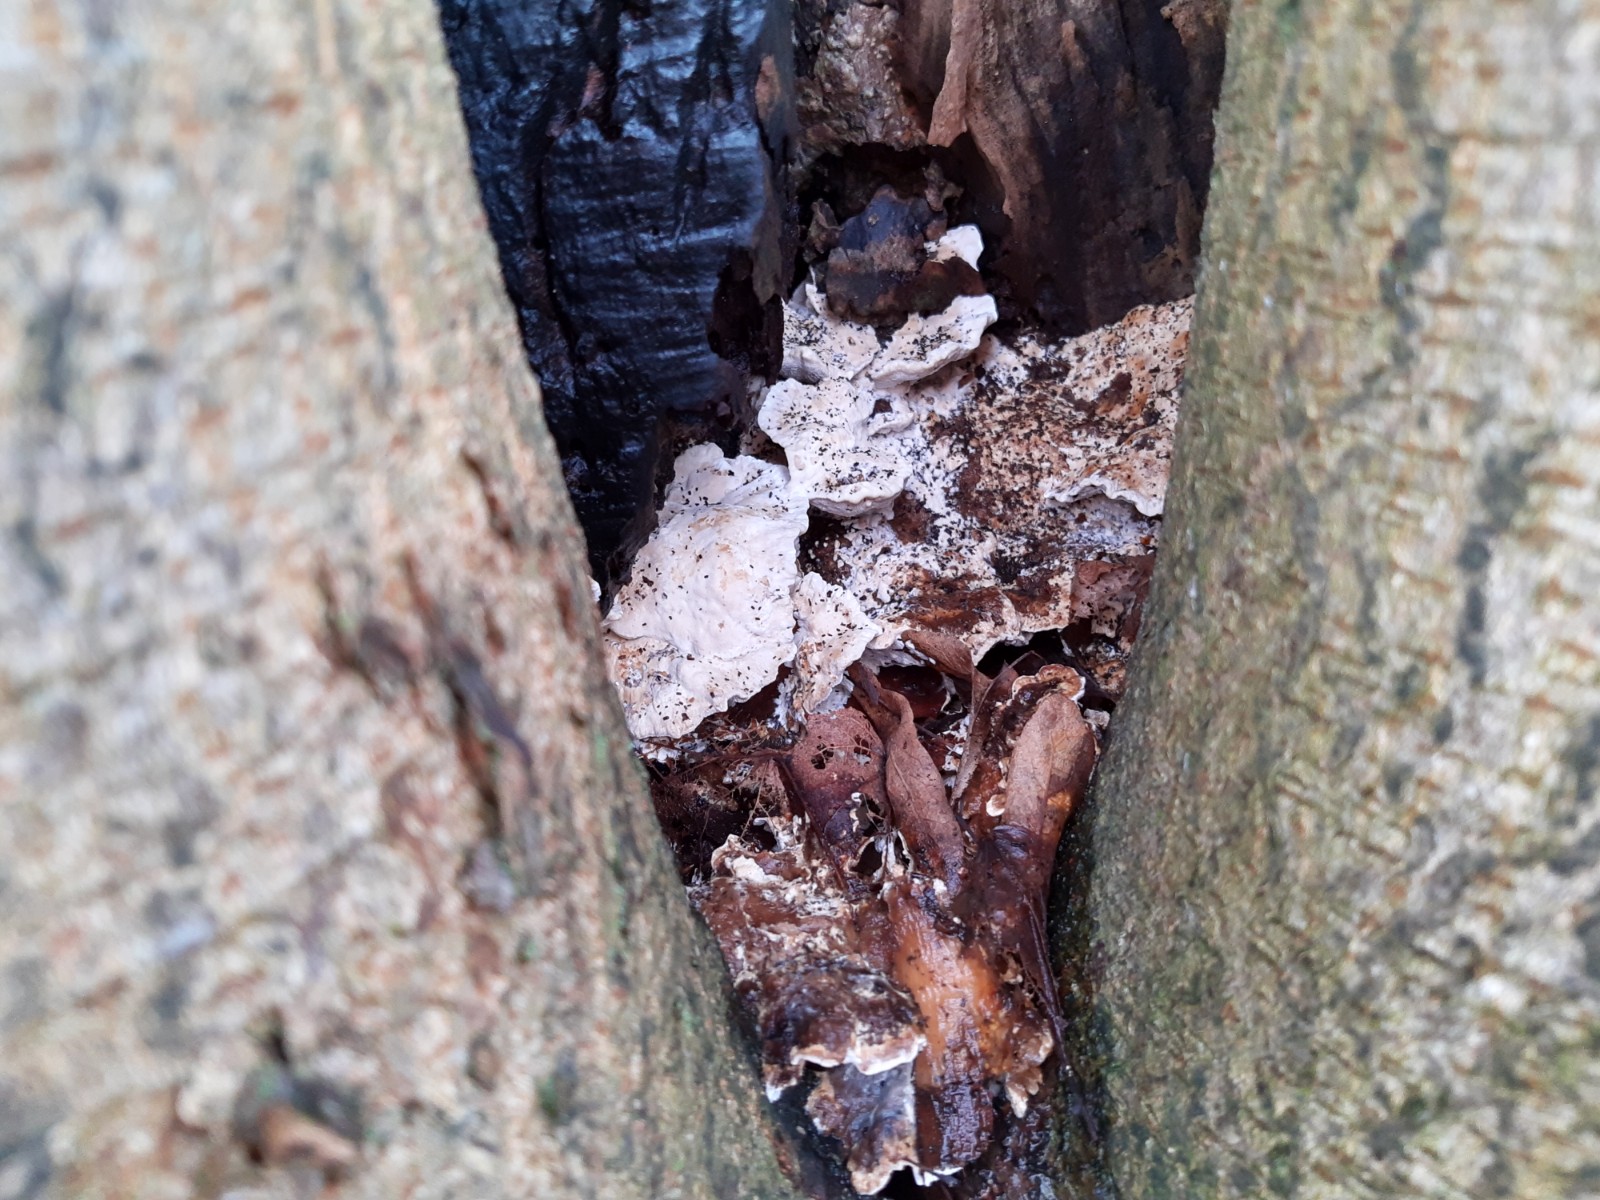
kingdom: Fungi
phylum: Basidiomycota
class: Agaricomycetes
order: Polyporales
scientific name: Polyporales
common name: poresvampordenen
